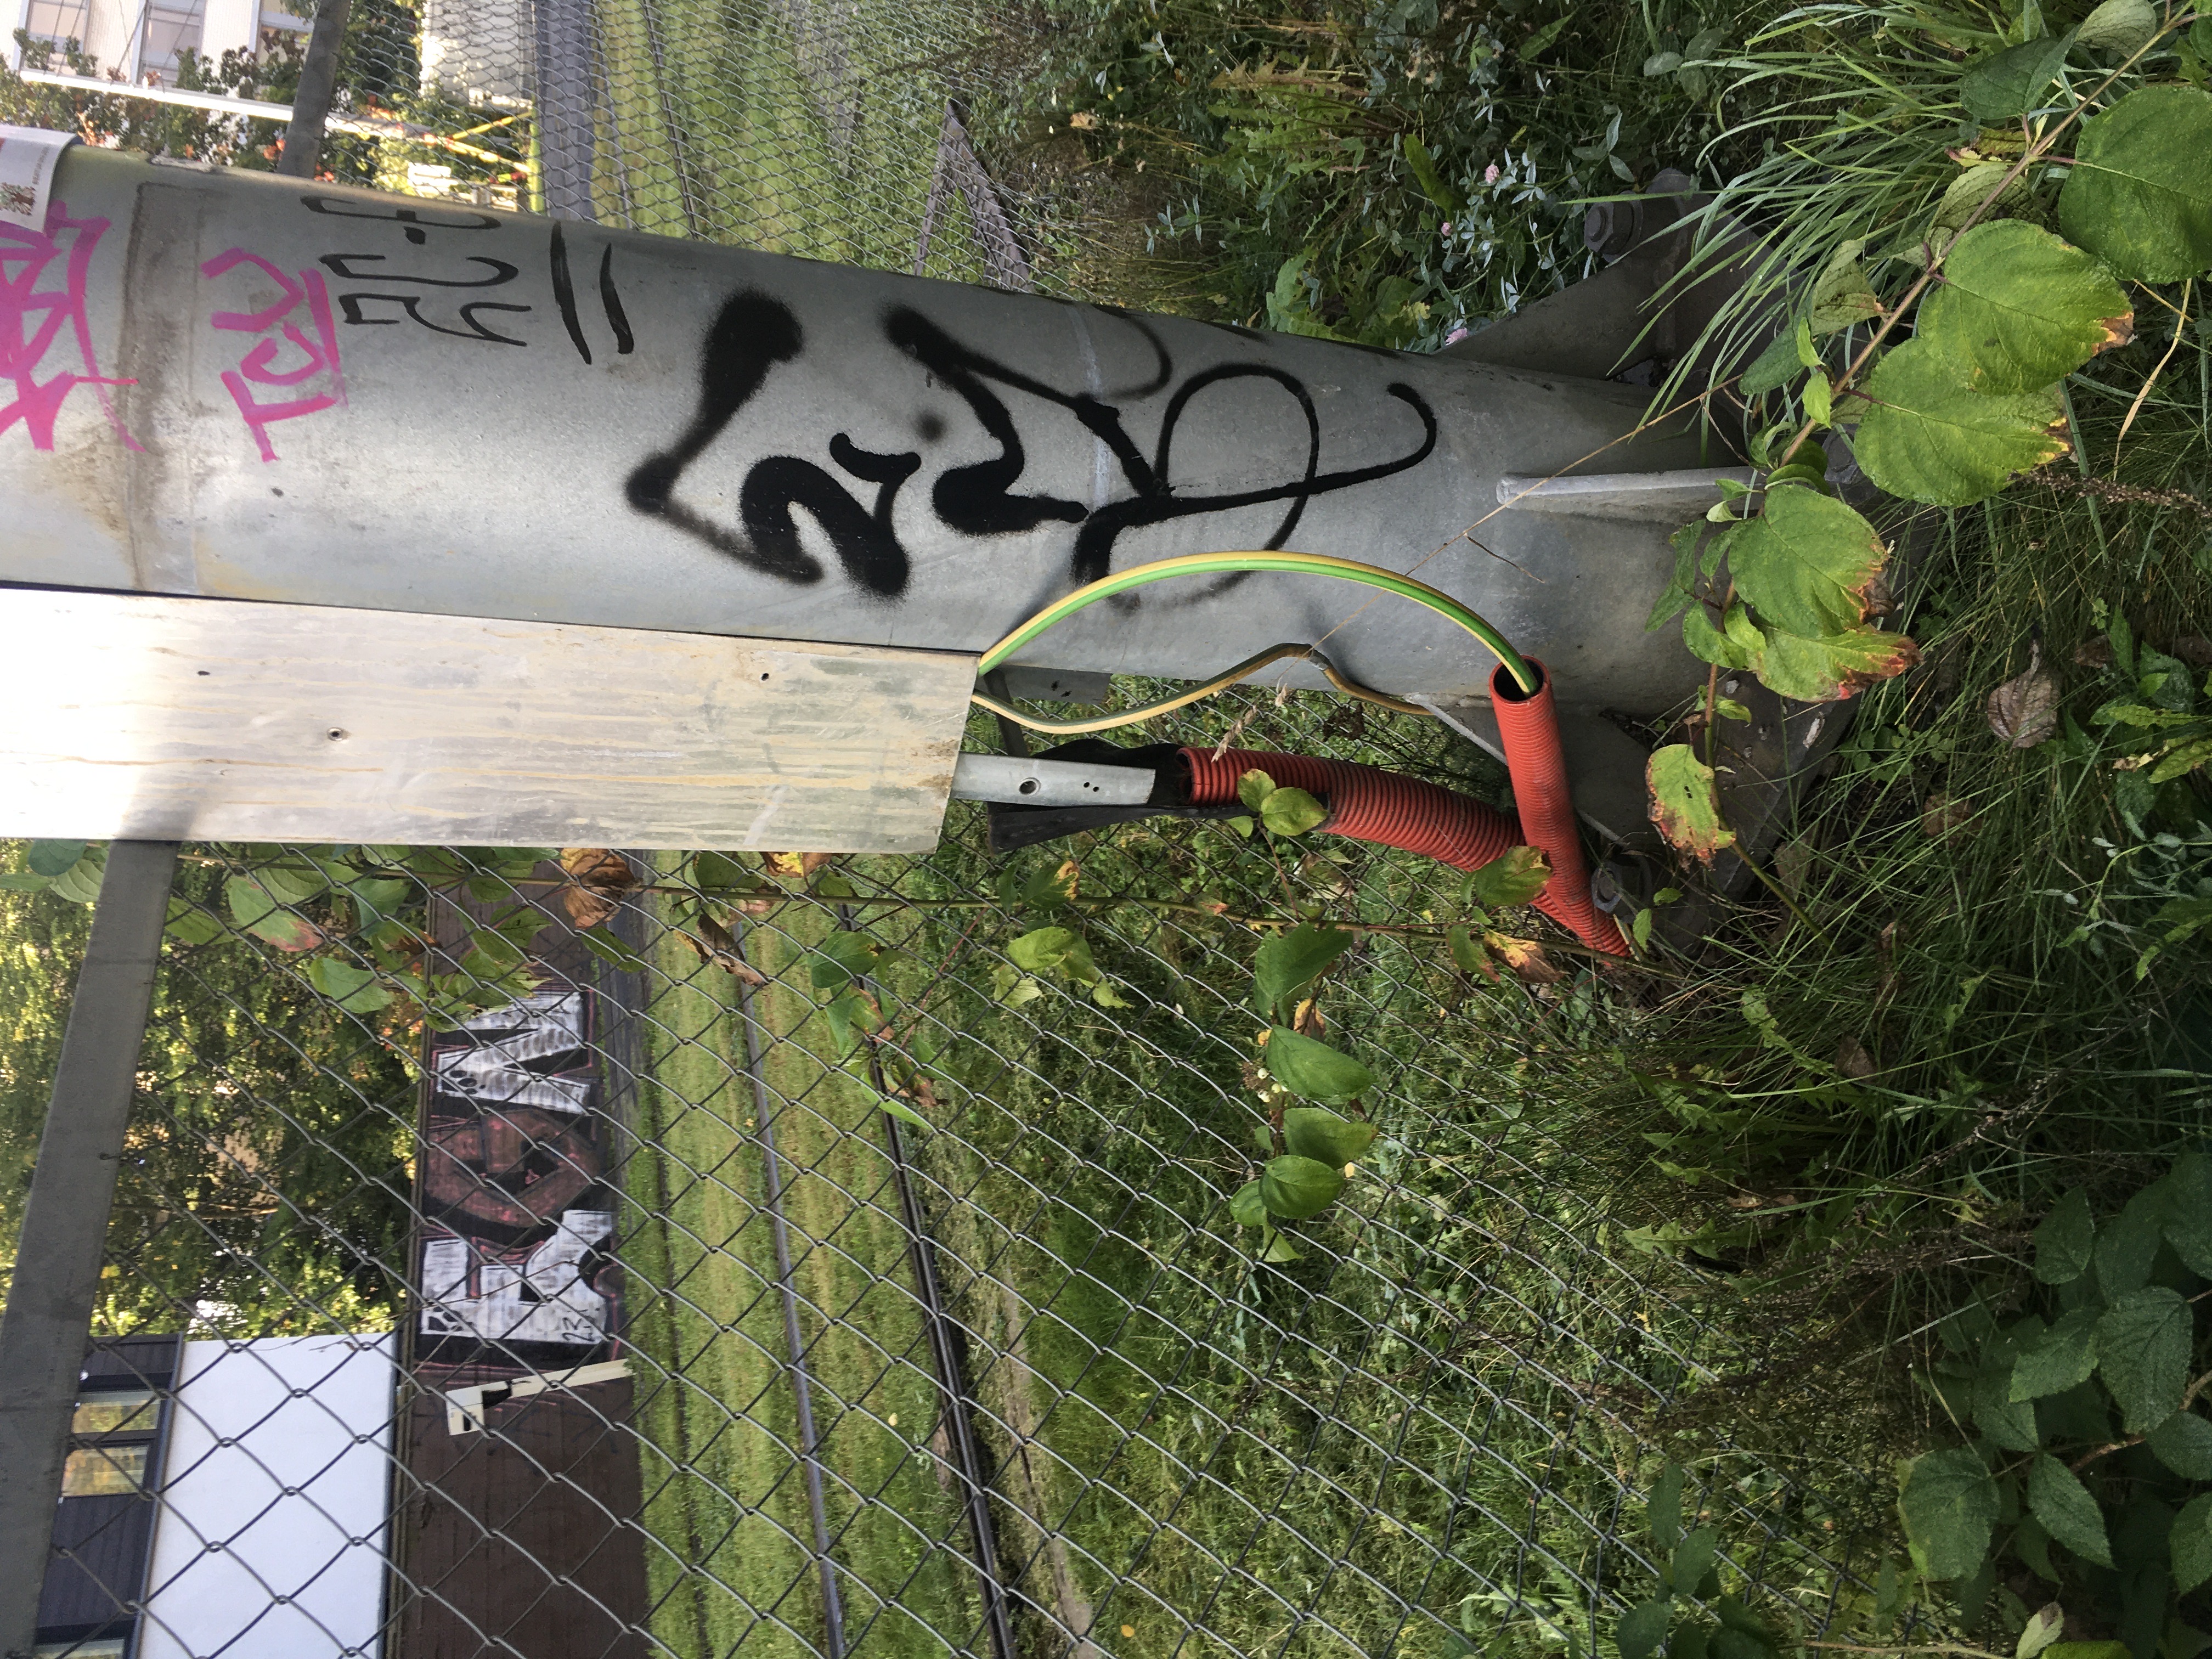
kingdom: Plantae
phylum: Tracheophyta
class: Magnoliopsida
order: Cornales
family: Cornaceae
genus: Cornus
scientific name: Cornus alba
